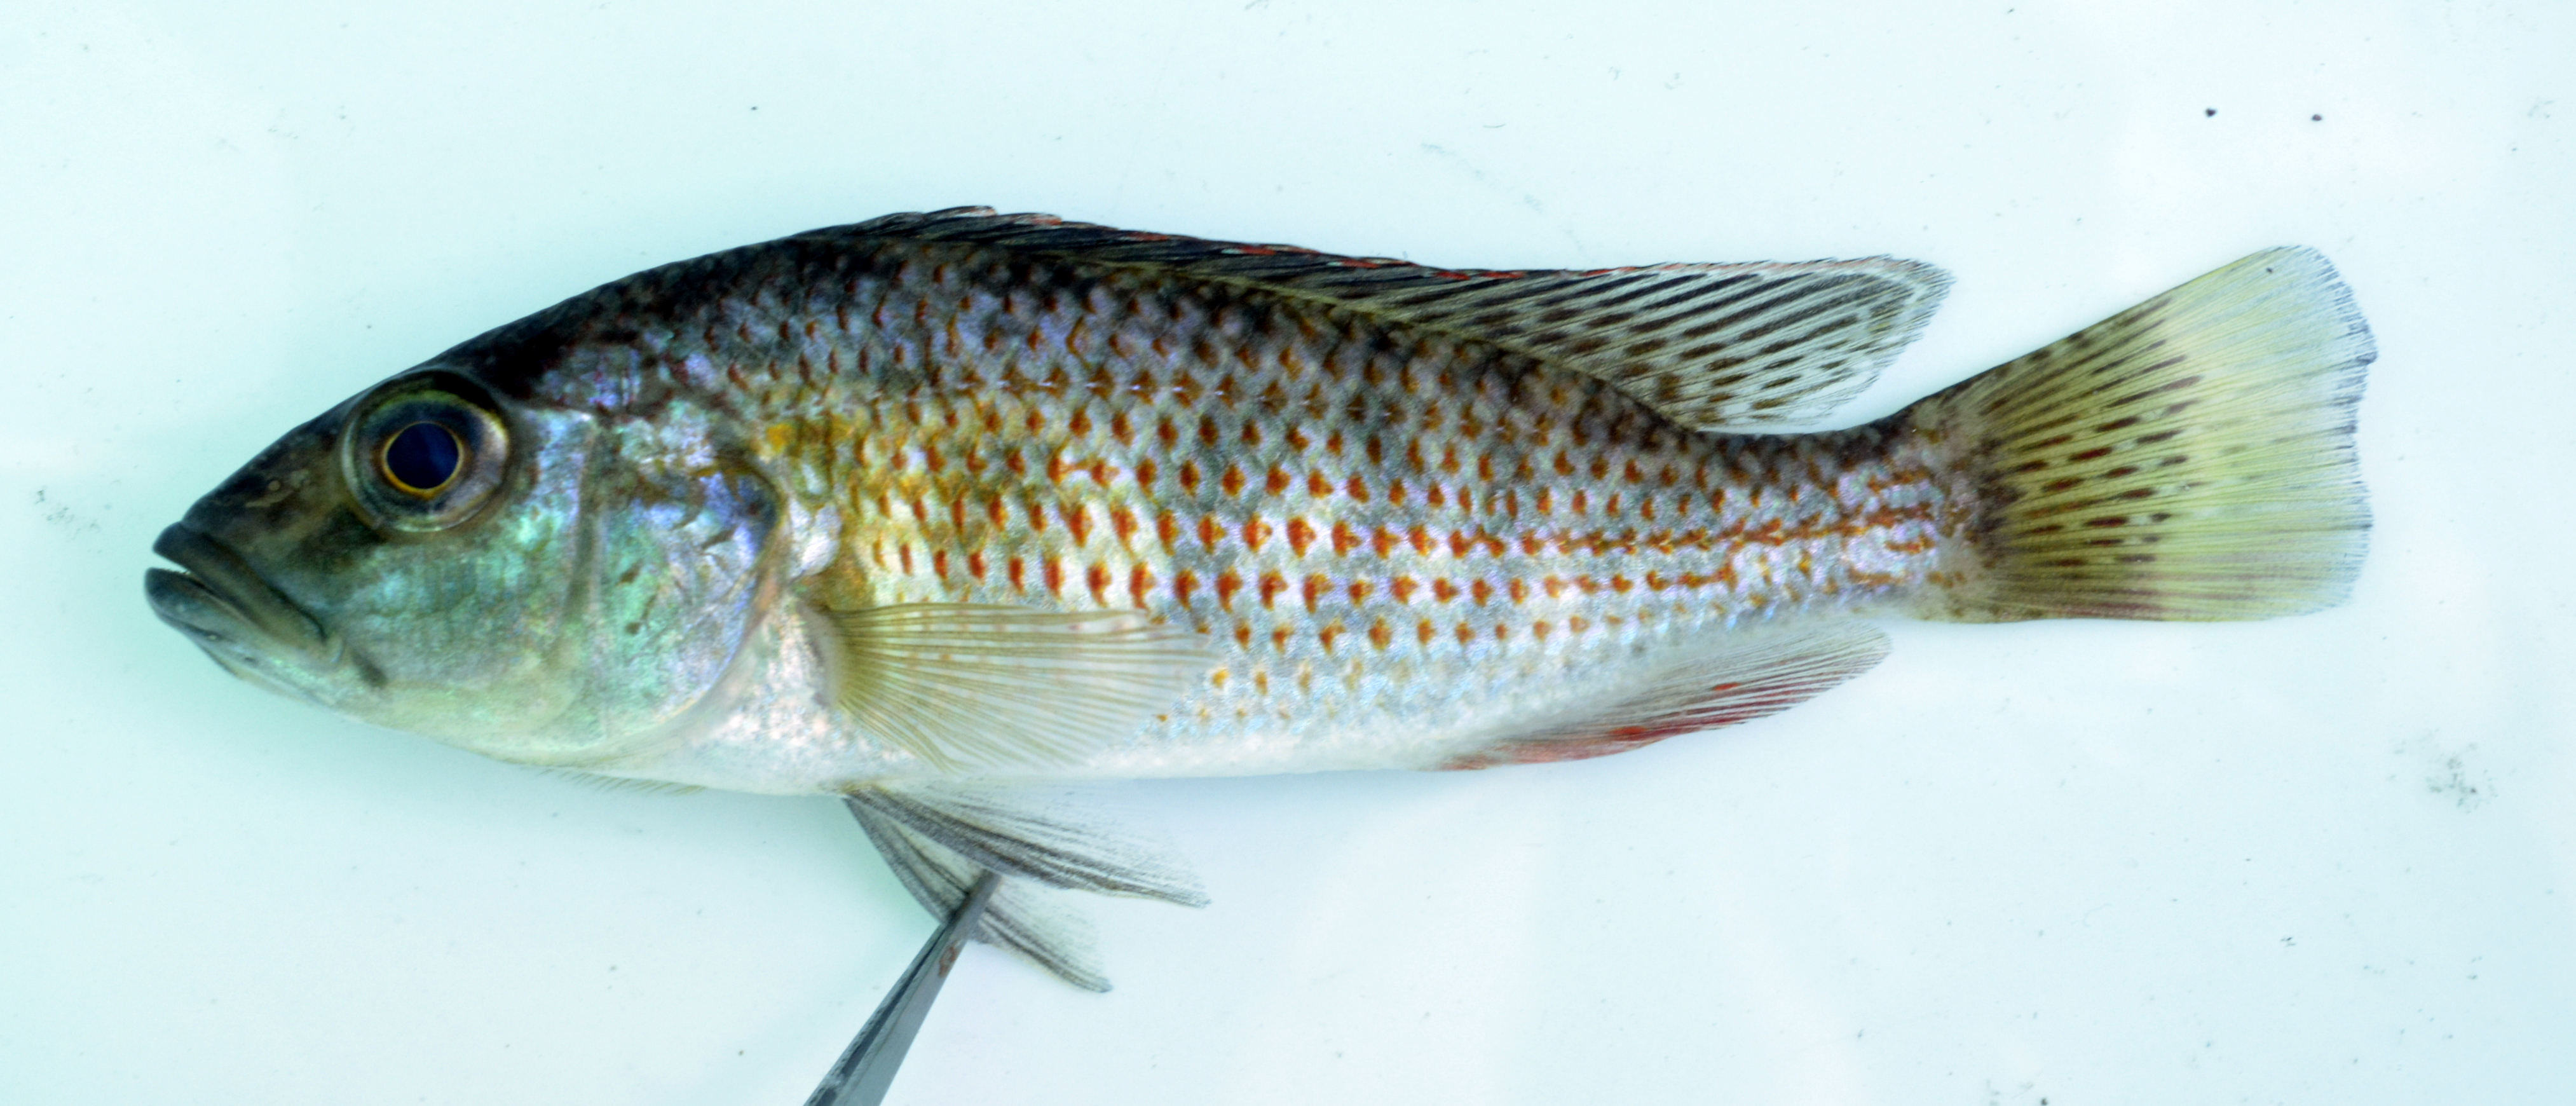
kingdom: Animalia
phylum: Chordata
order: Perciformes
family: Cichlidae
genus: Serranochromis
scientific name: Serranochromis
